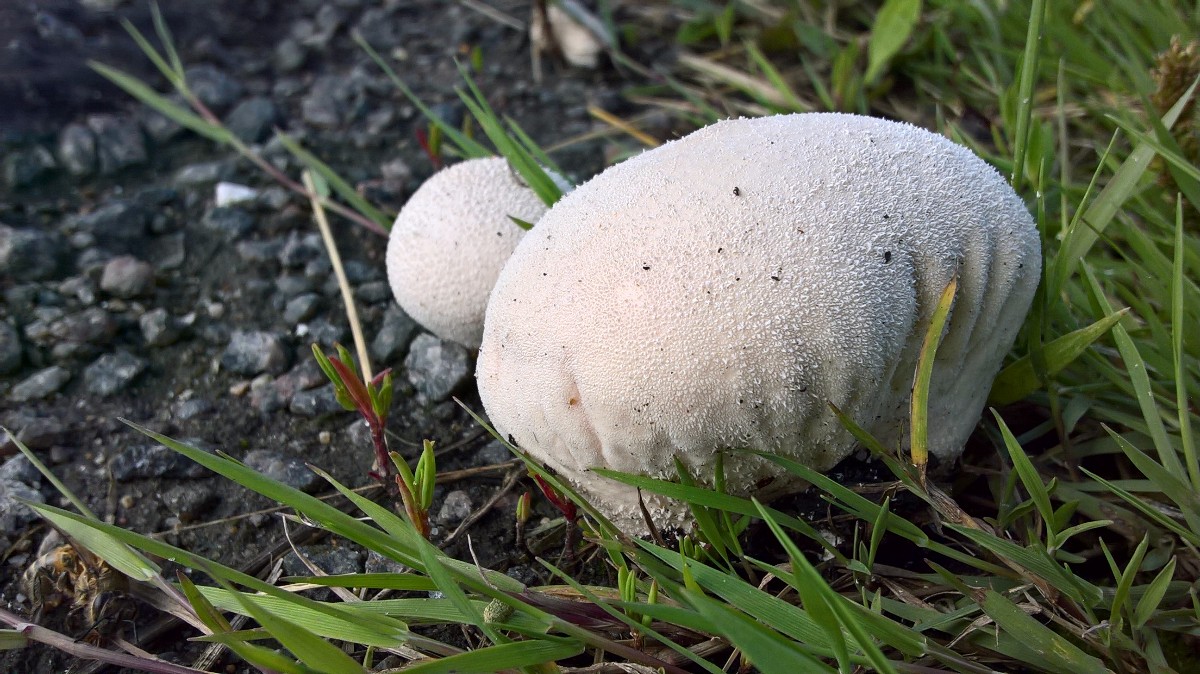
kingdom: Fungi
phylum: Basidiomycota
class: Agaricomycetes
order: Agaricales
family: Lycoperdaceae
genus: Lycoperdon
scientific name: Lycoperdon pratense
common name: flad støvbold
